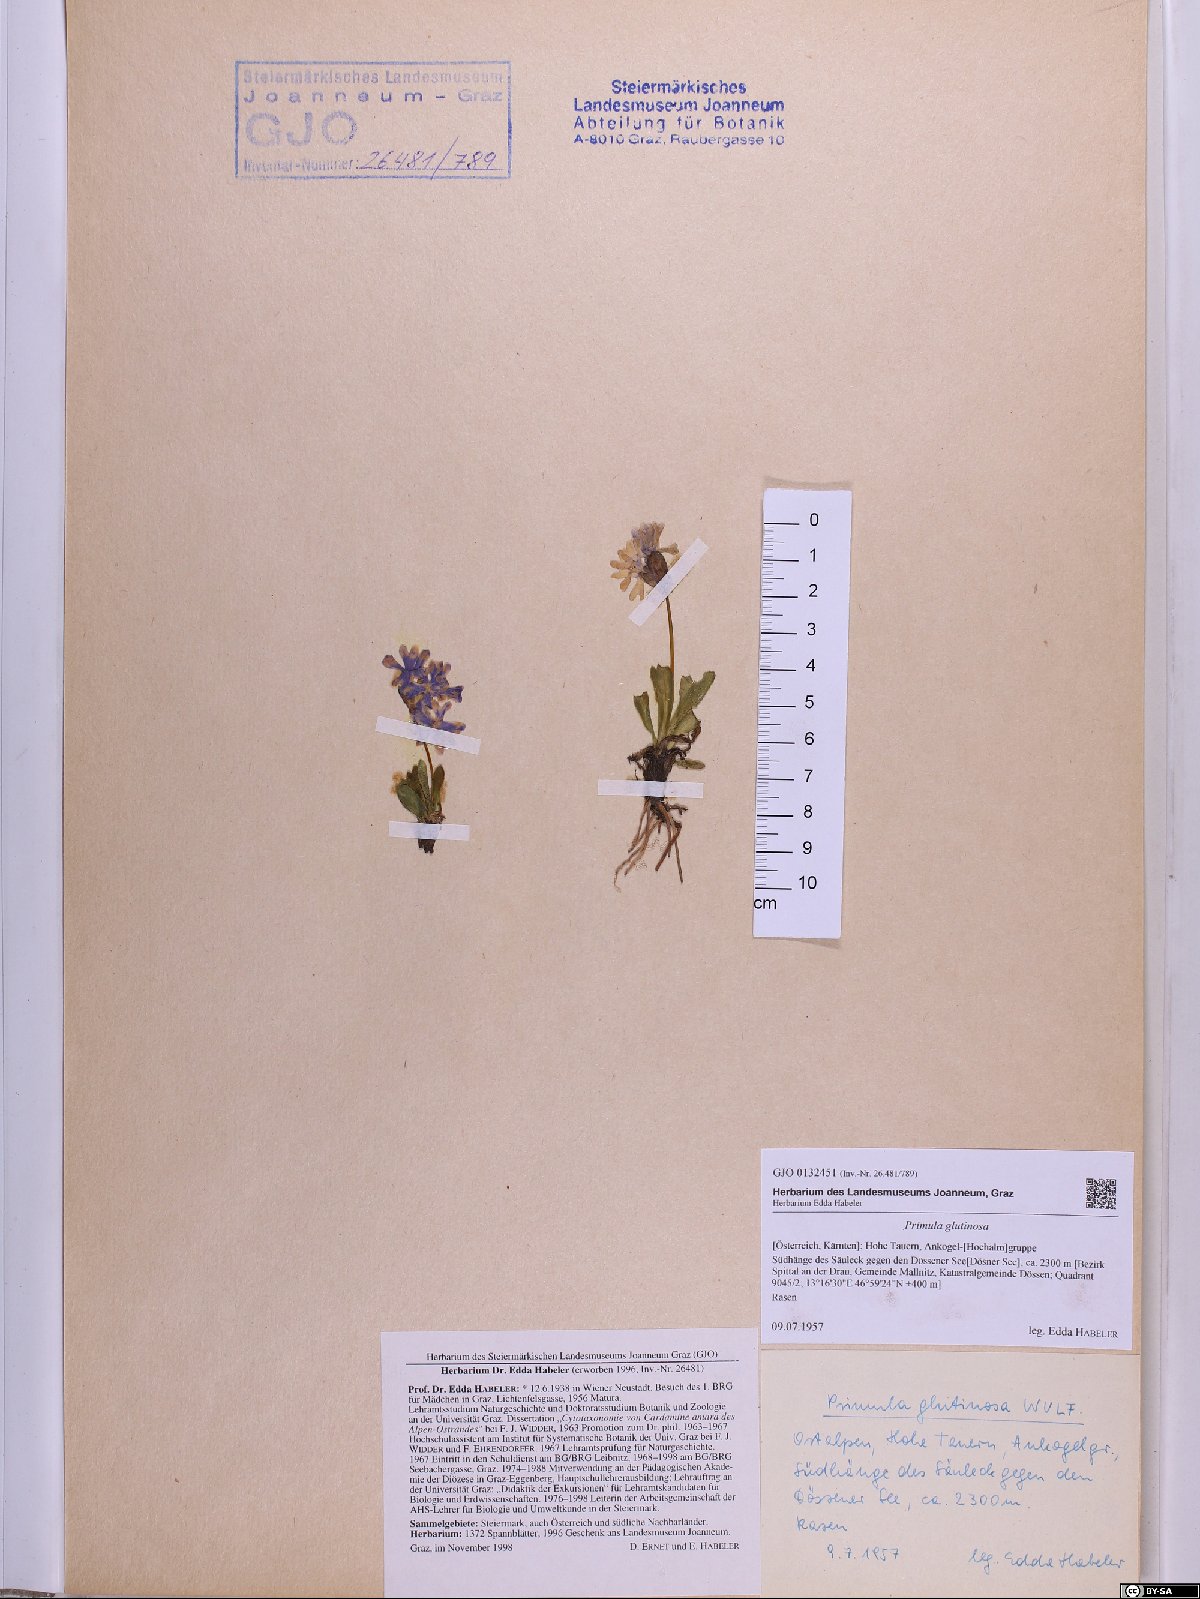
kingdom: Plantae
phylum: Tracheophyta
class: Magnoliopsida
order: Ericales
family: Primulaceae
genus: Primula
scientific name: Primula glutinosa
